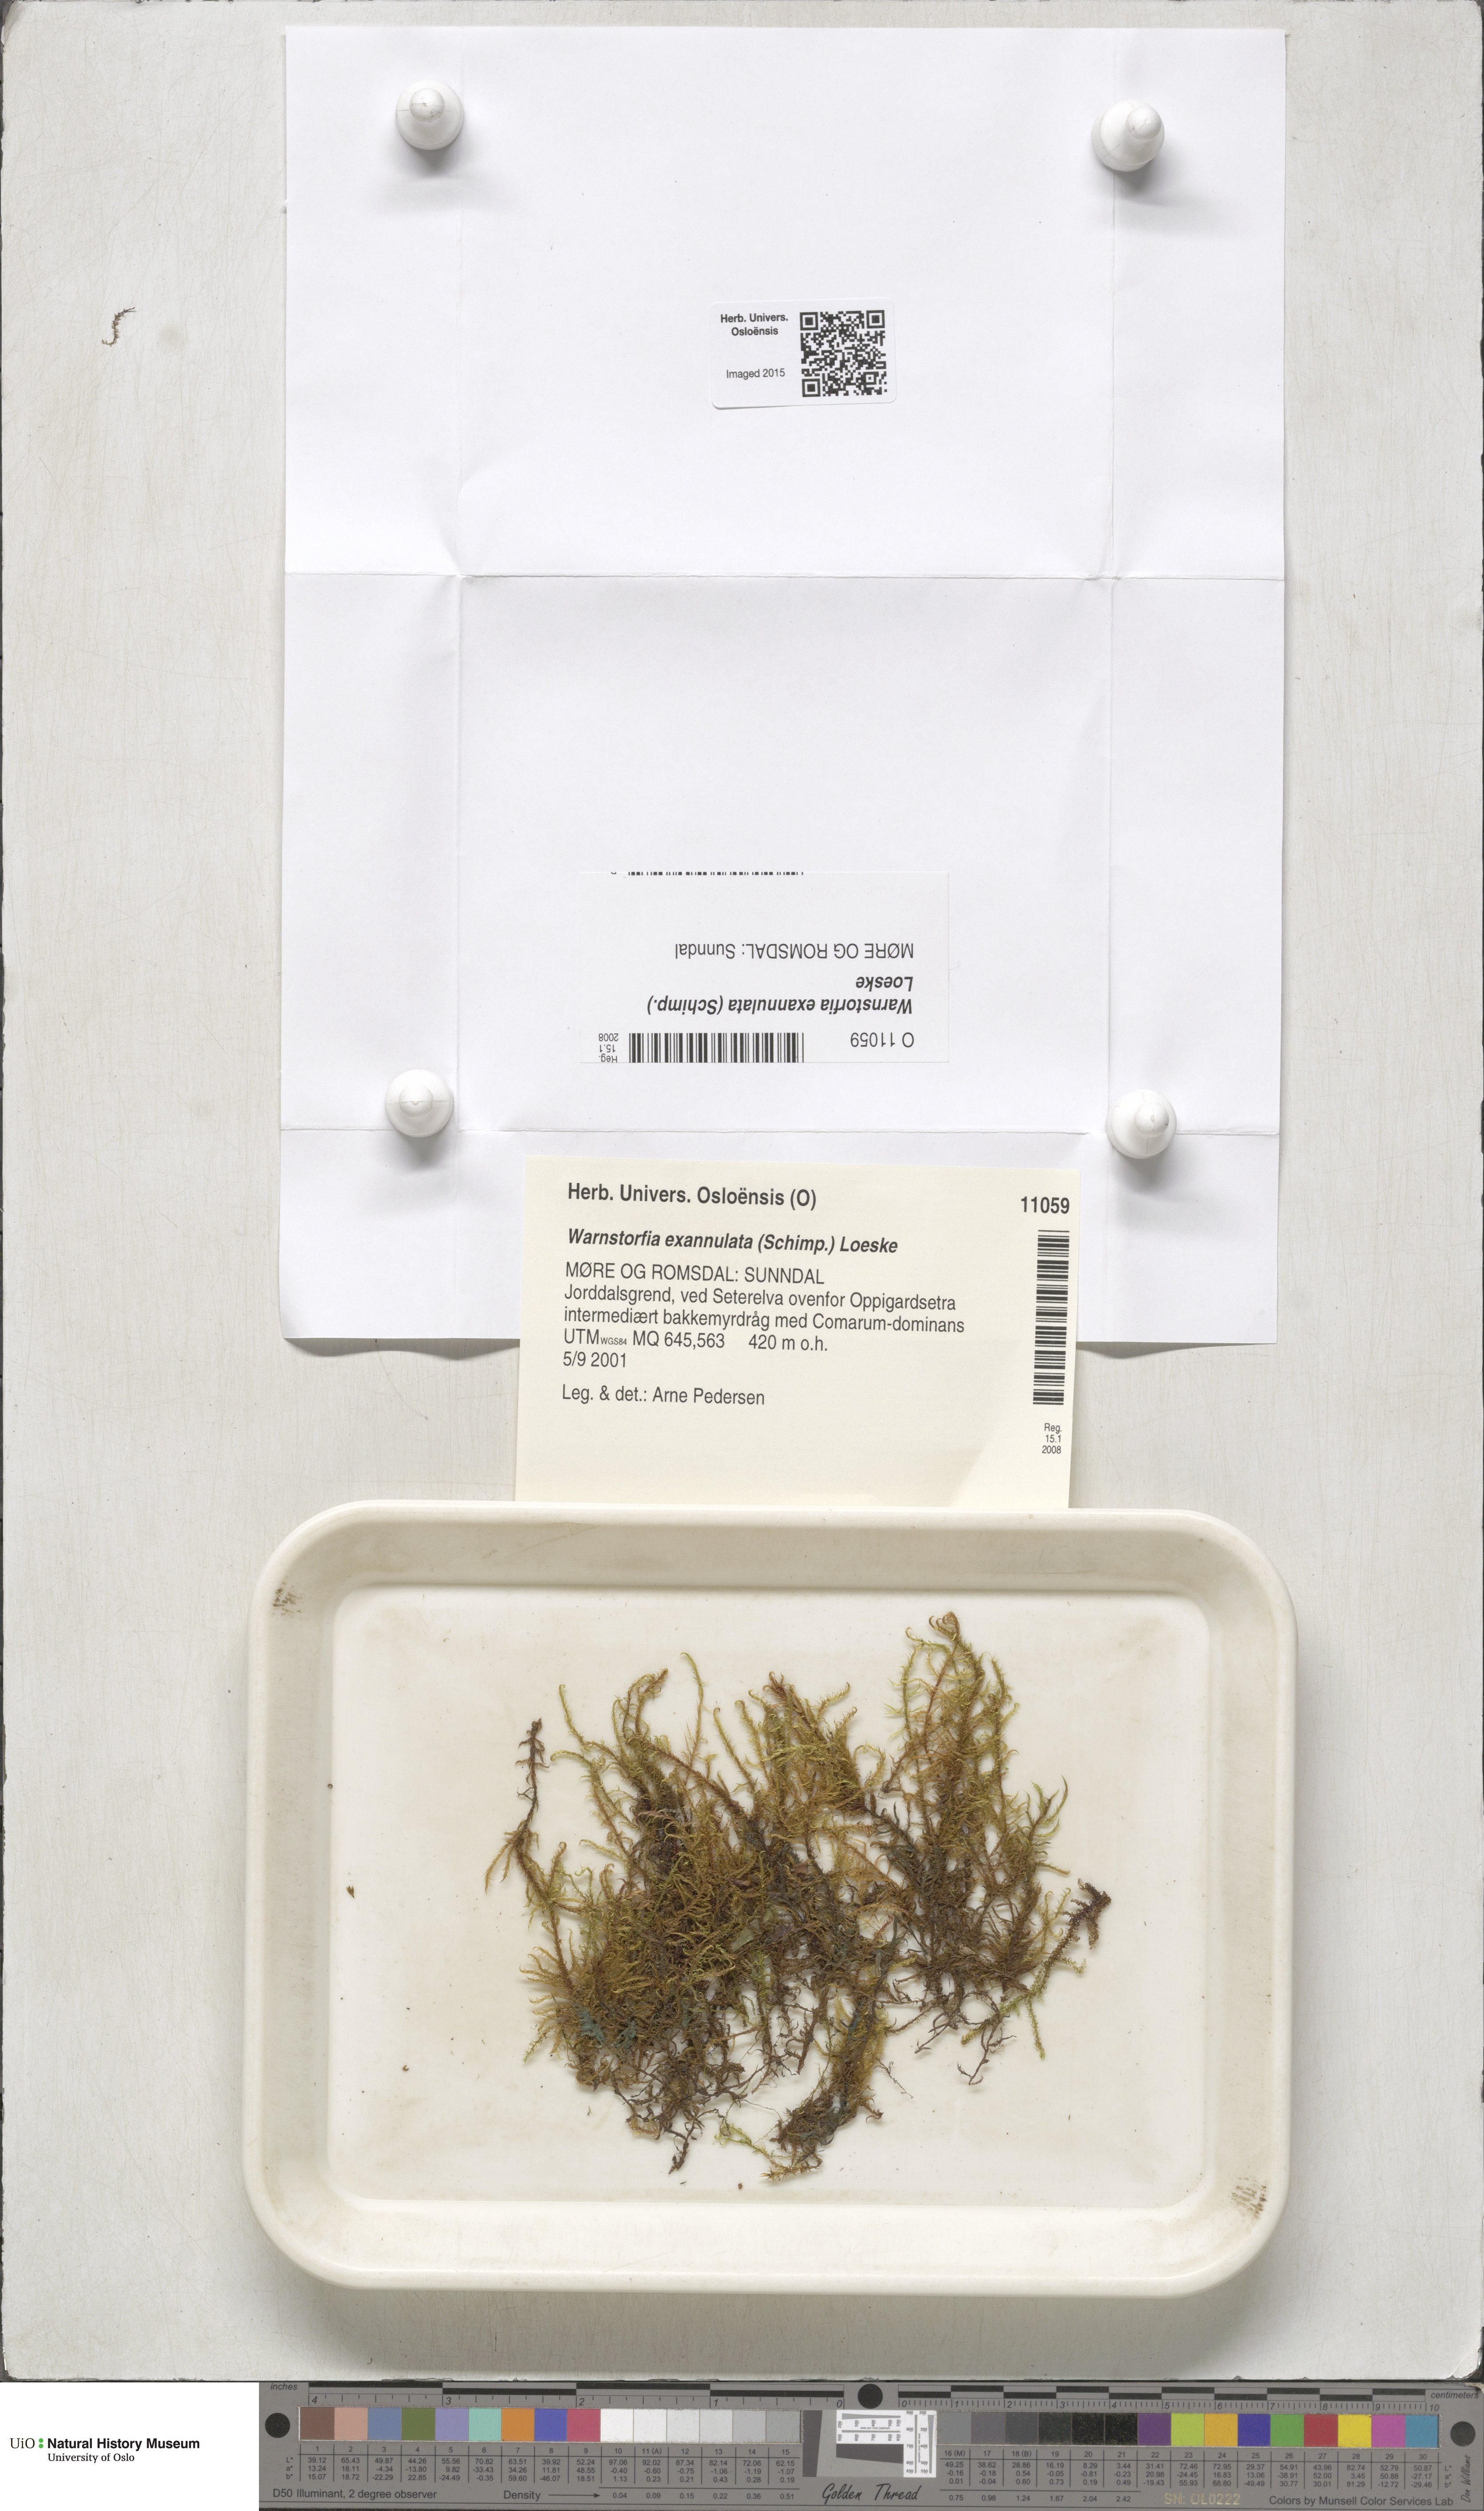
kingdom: Plantae
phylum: Bryophyta
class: Bryopsida
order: Hypnales
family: Calliergonaceae
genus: Sarmentypnum
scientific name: Sarmentypnum exannulatum
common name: Ringless spoon moss
